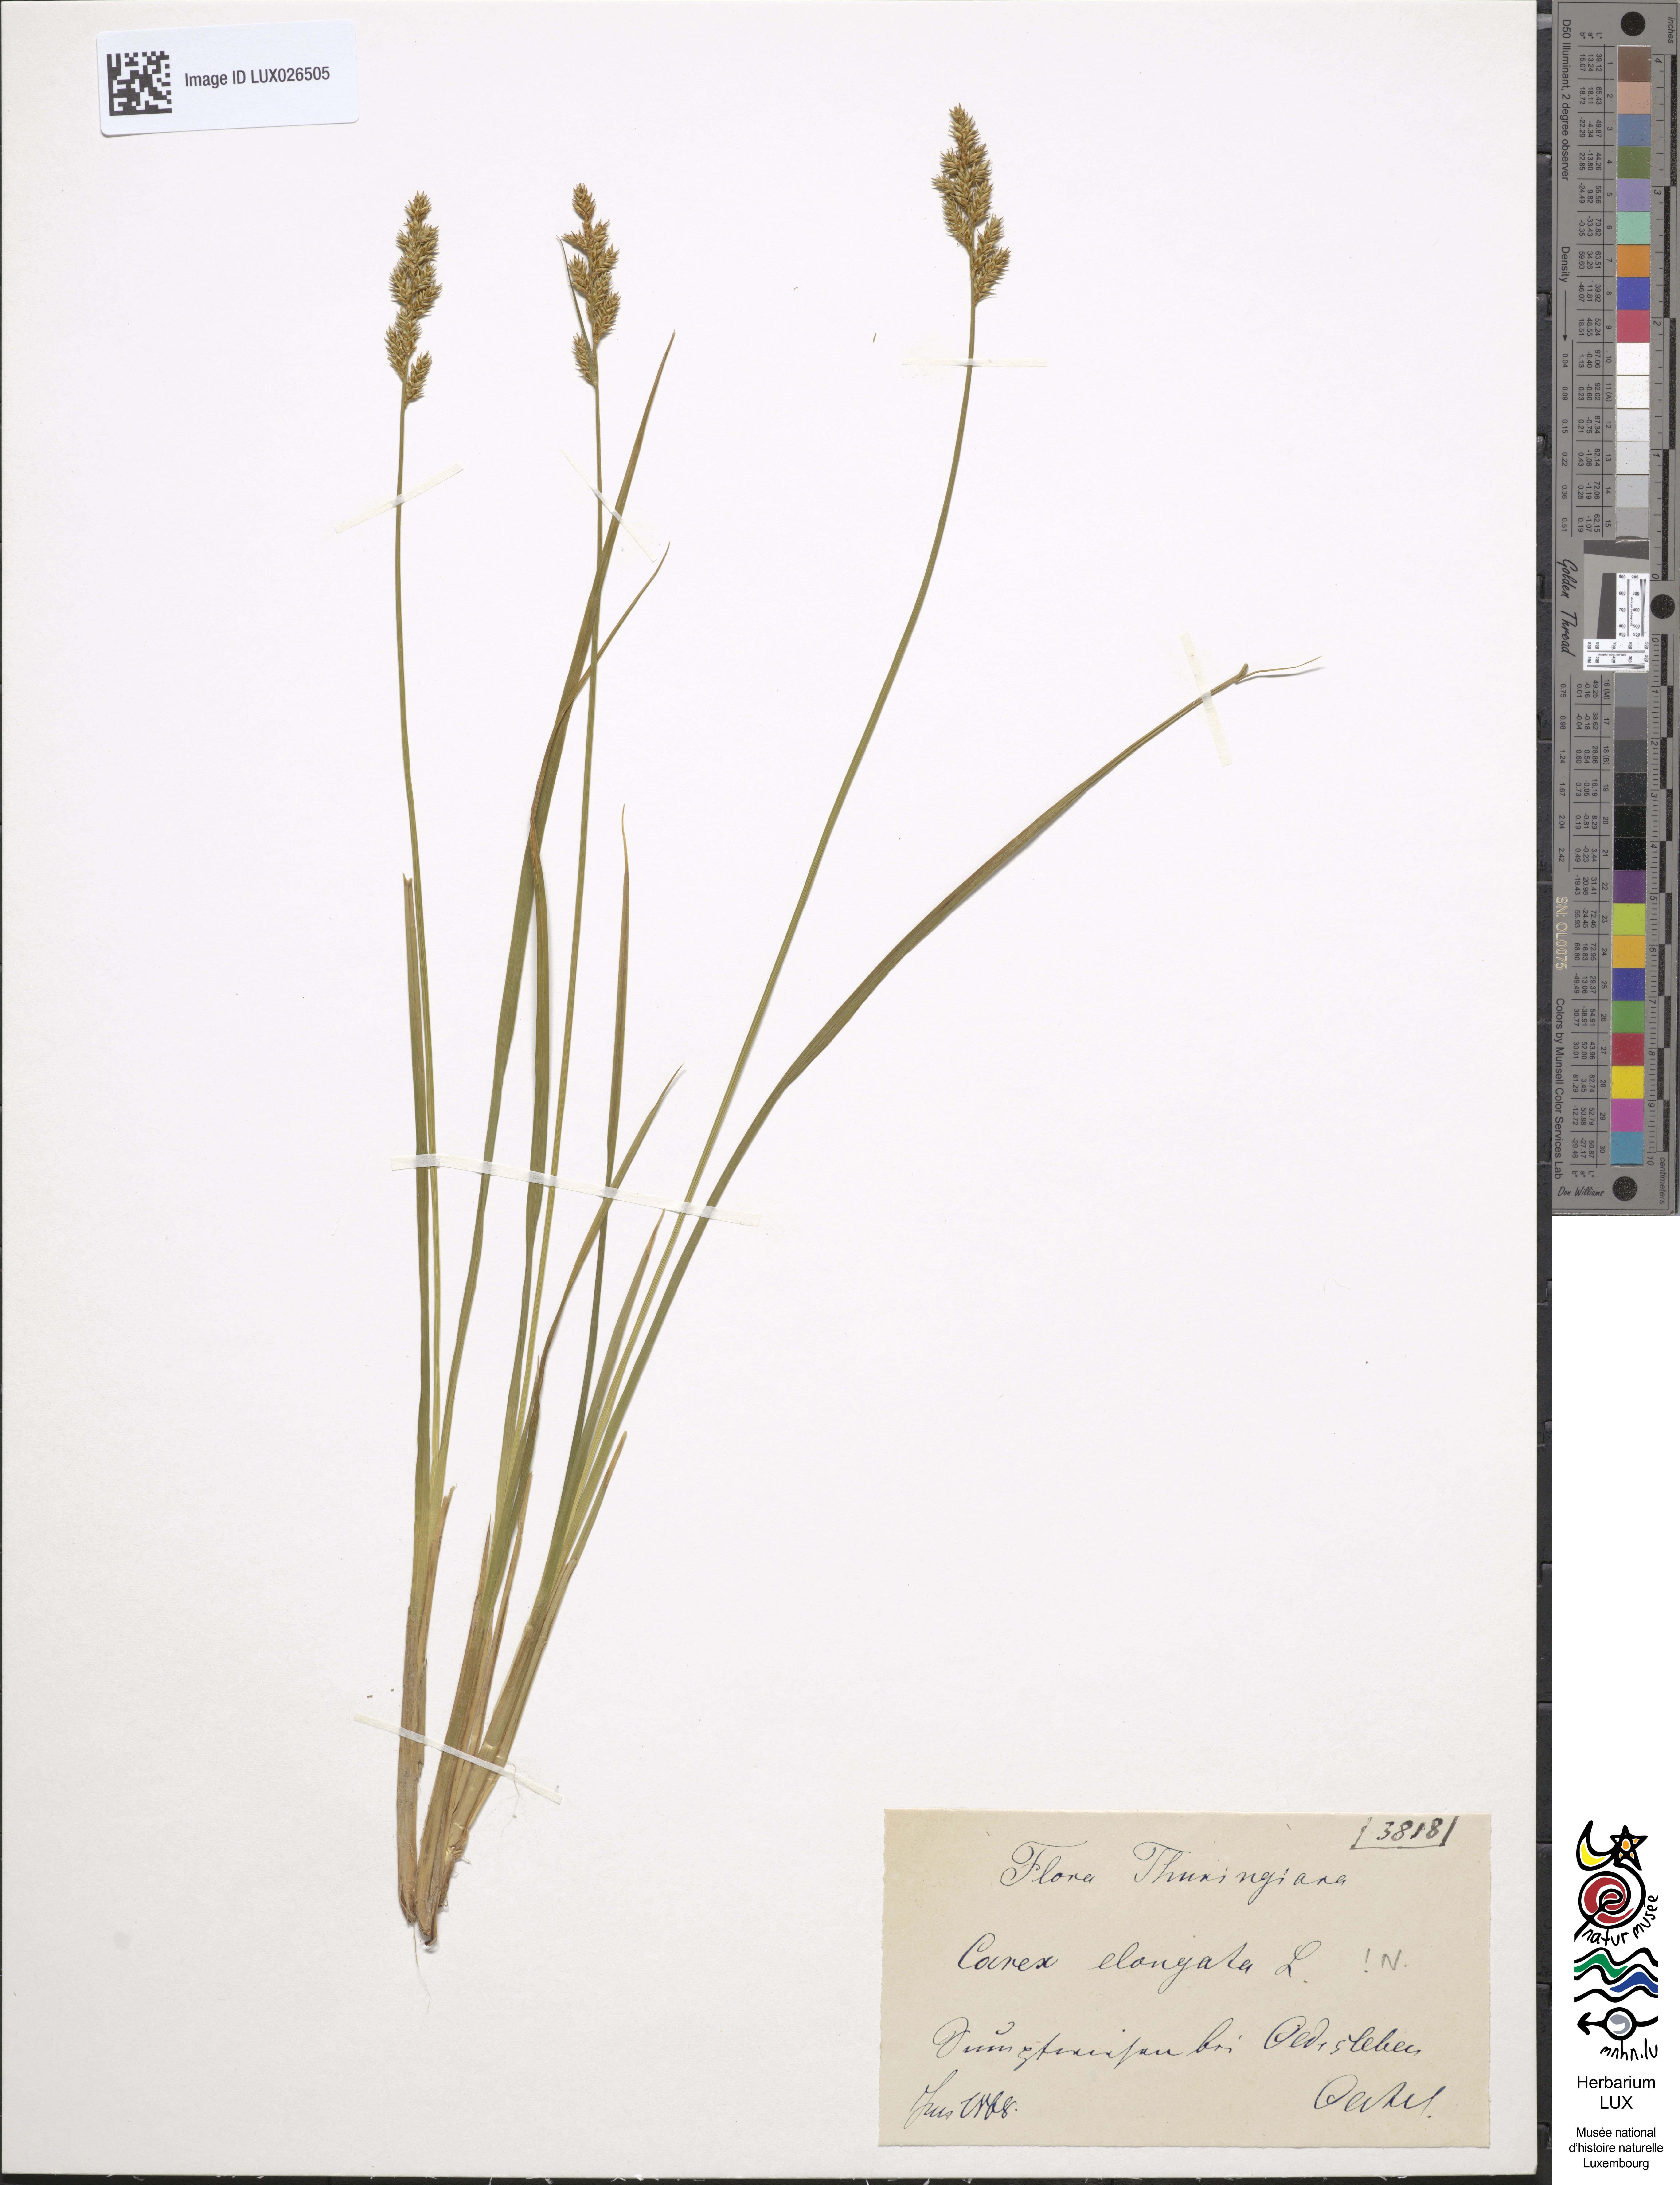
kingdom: Plantae
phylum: Tracheophyta
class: Liliopsida
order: Poales
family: Cyperaceae
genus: Carex
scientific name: Carex elongata
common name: Elongated sedge
